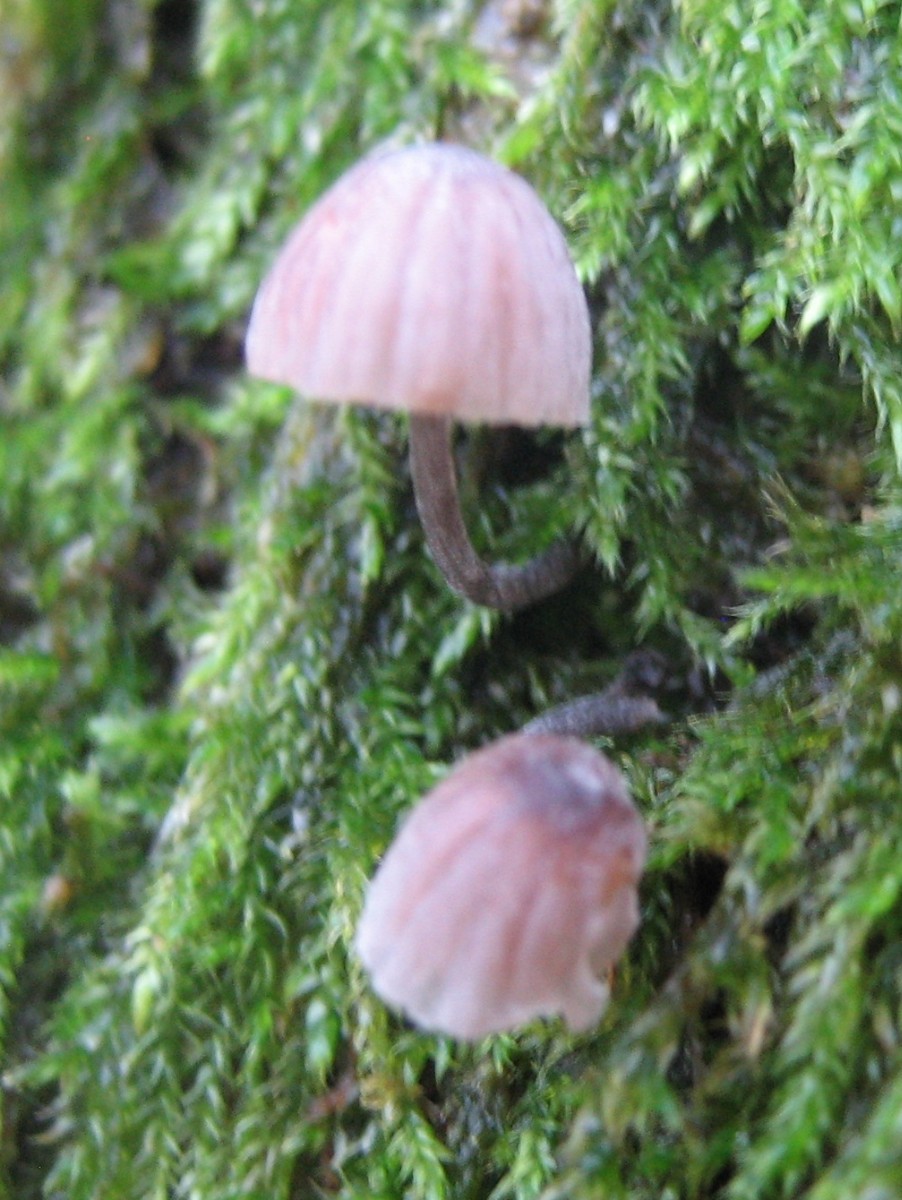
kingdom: Fungi
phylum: Basidiomycota
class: Agaricomycetes
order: Agaricales
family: Mycenaceae
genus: Mycena
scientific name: Mycena meliigena
